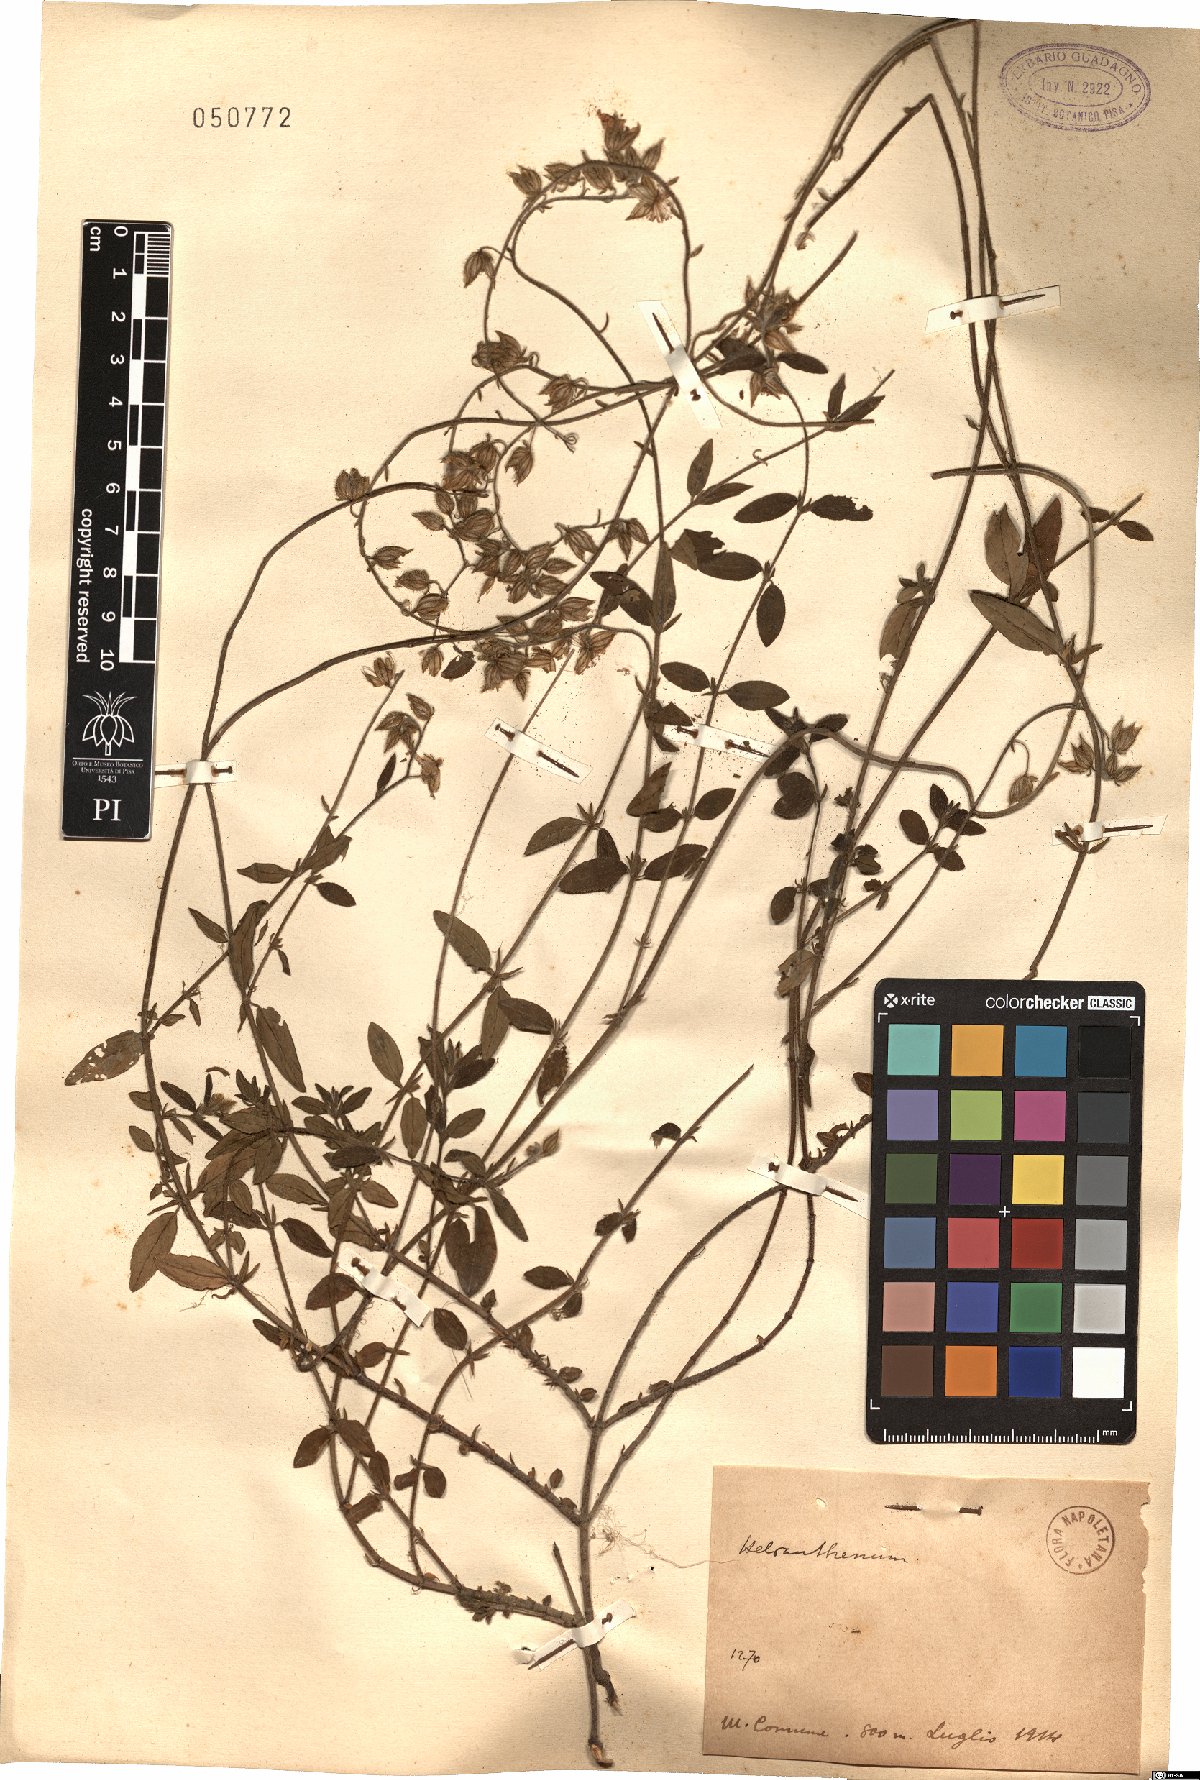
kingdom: Plantae
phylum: Tracheophyta
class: Magnoliopsida
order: Malvales
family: Cistaceae
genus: Helianthemum
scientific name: Helianthemum
